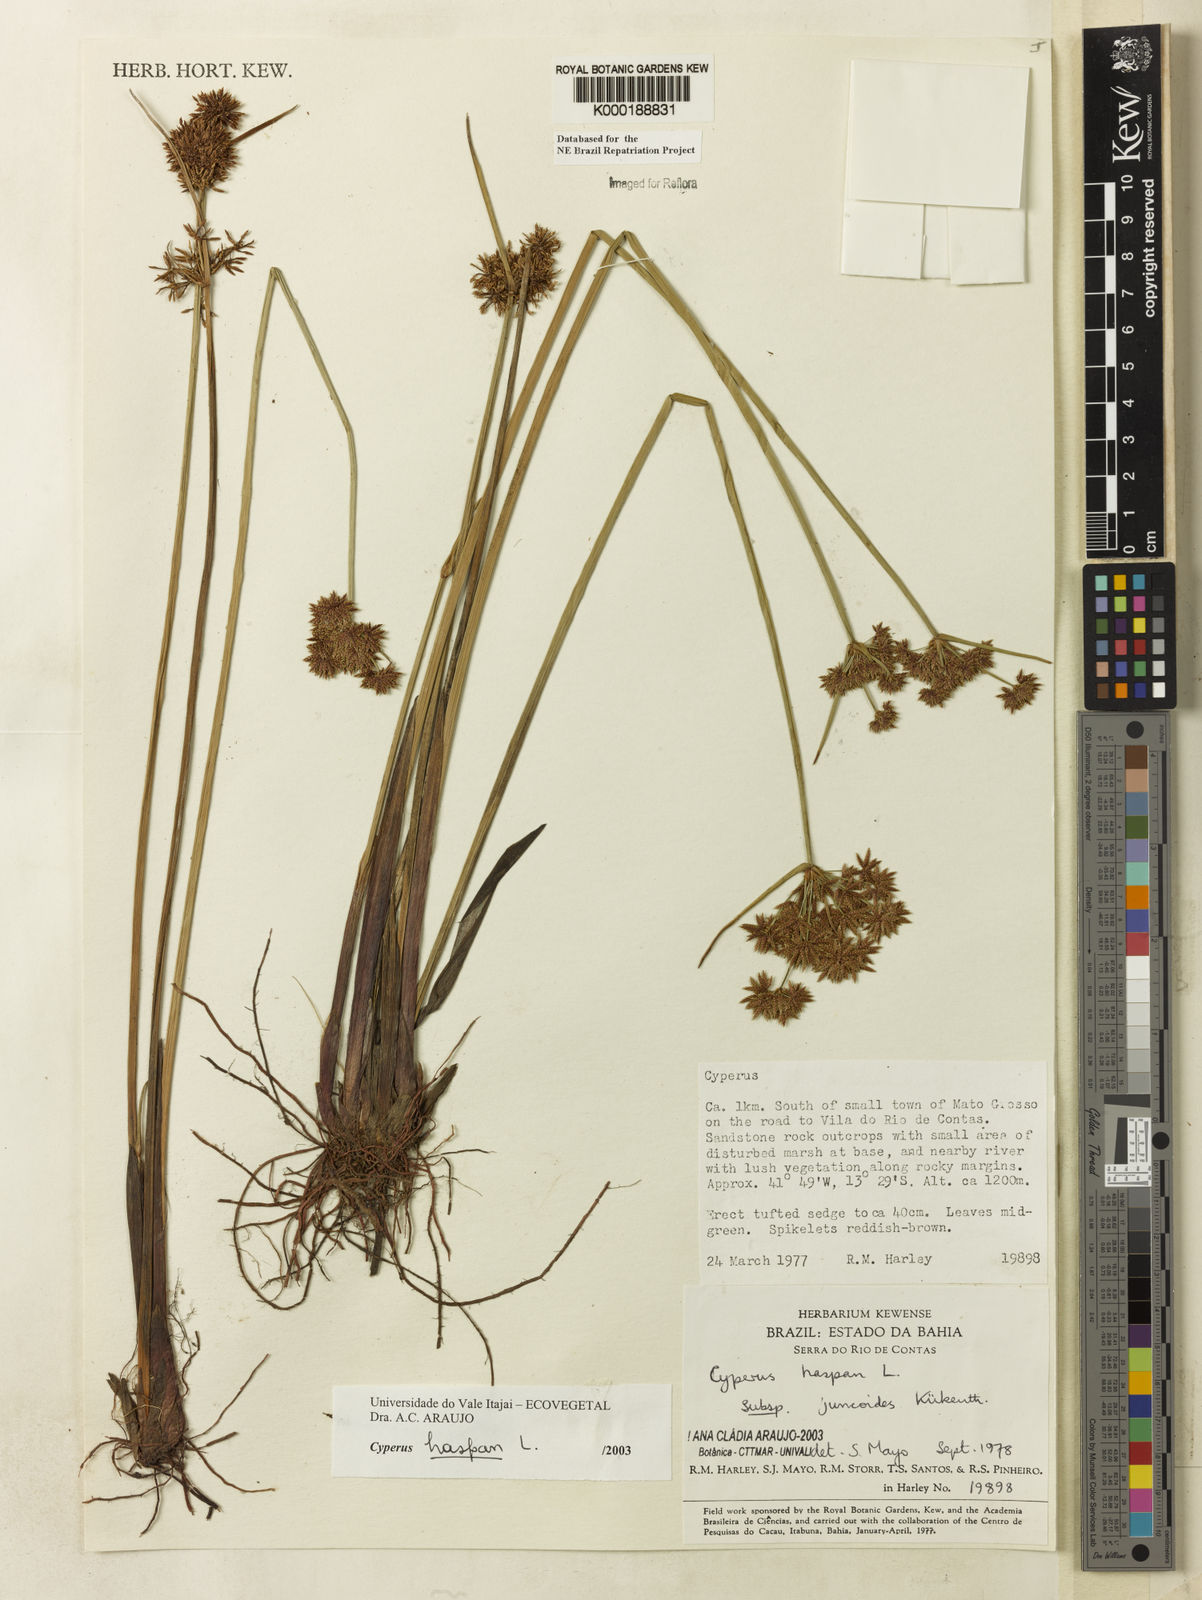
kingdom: Plantae
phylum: Tracheophyta
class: Liliopsida
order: Poales
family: Cyperaceae
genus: Cyperus
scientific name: Cyperus haspan
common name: Haspan flatsedge
